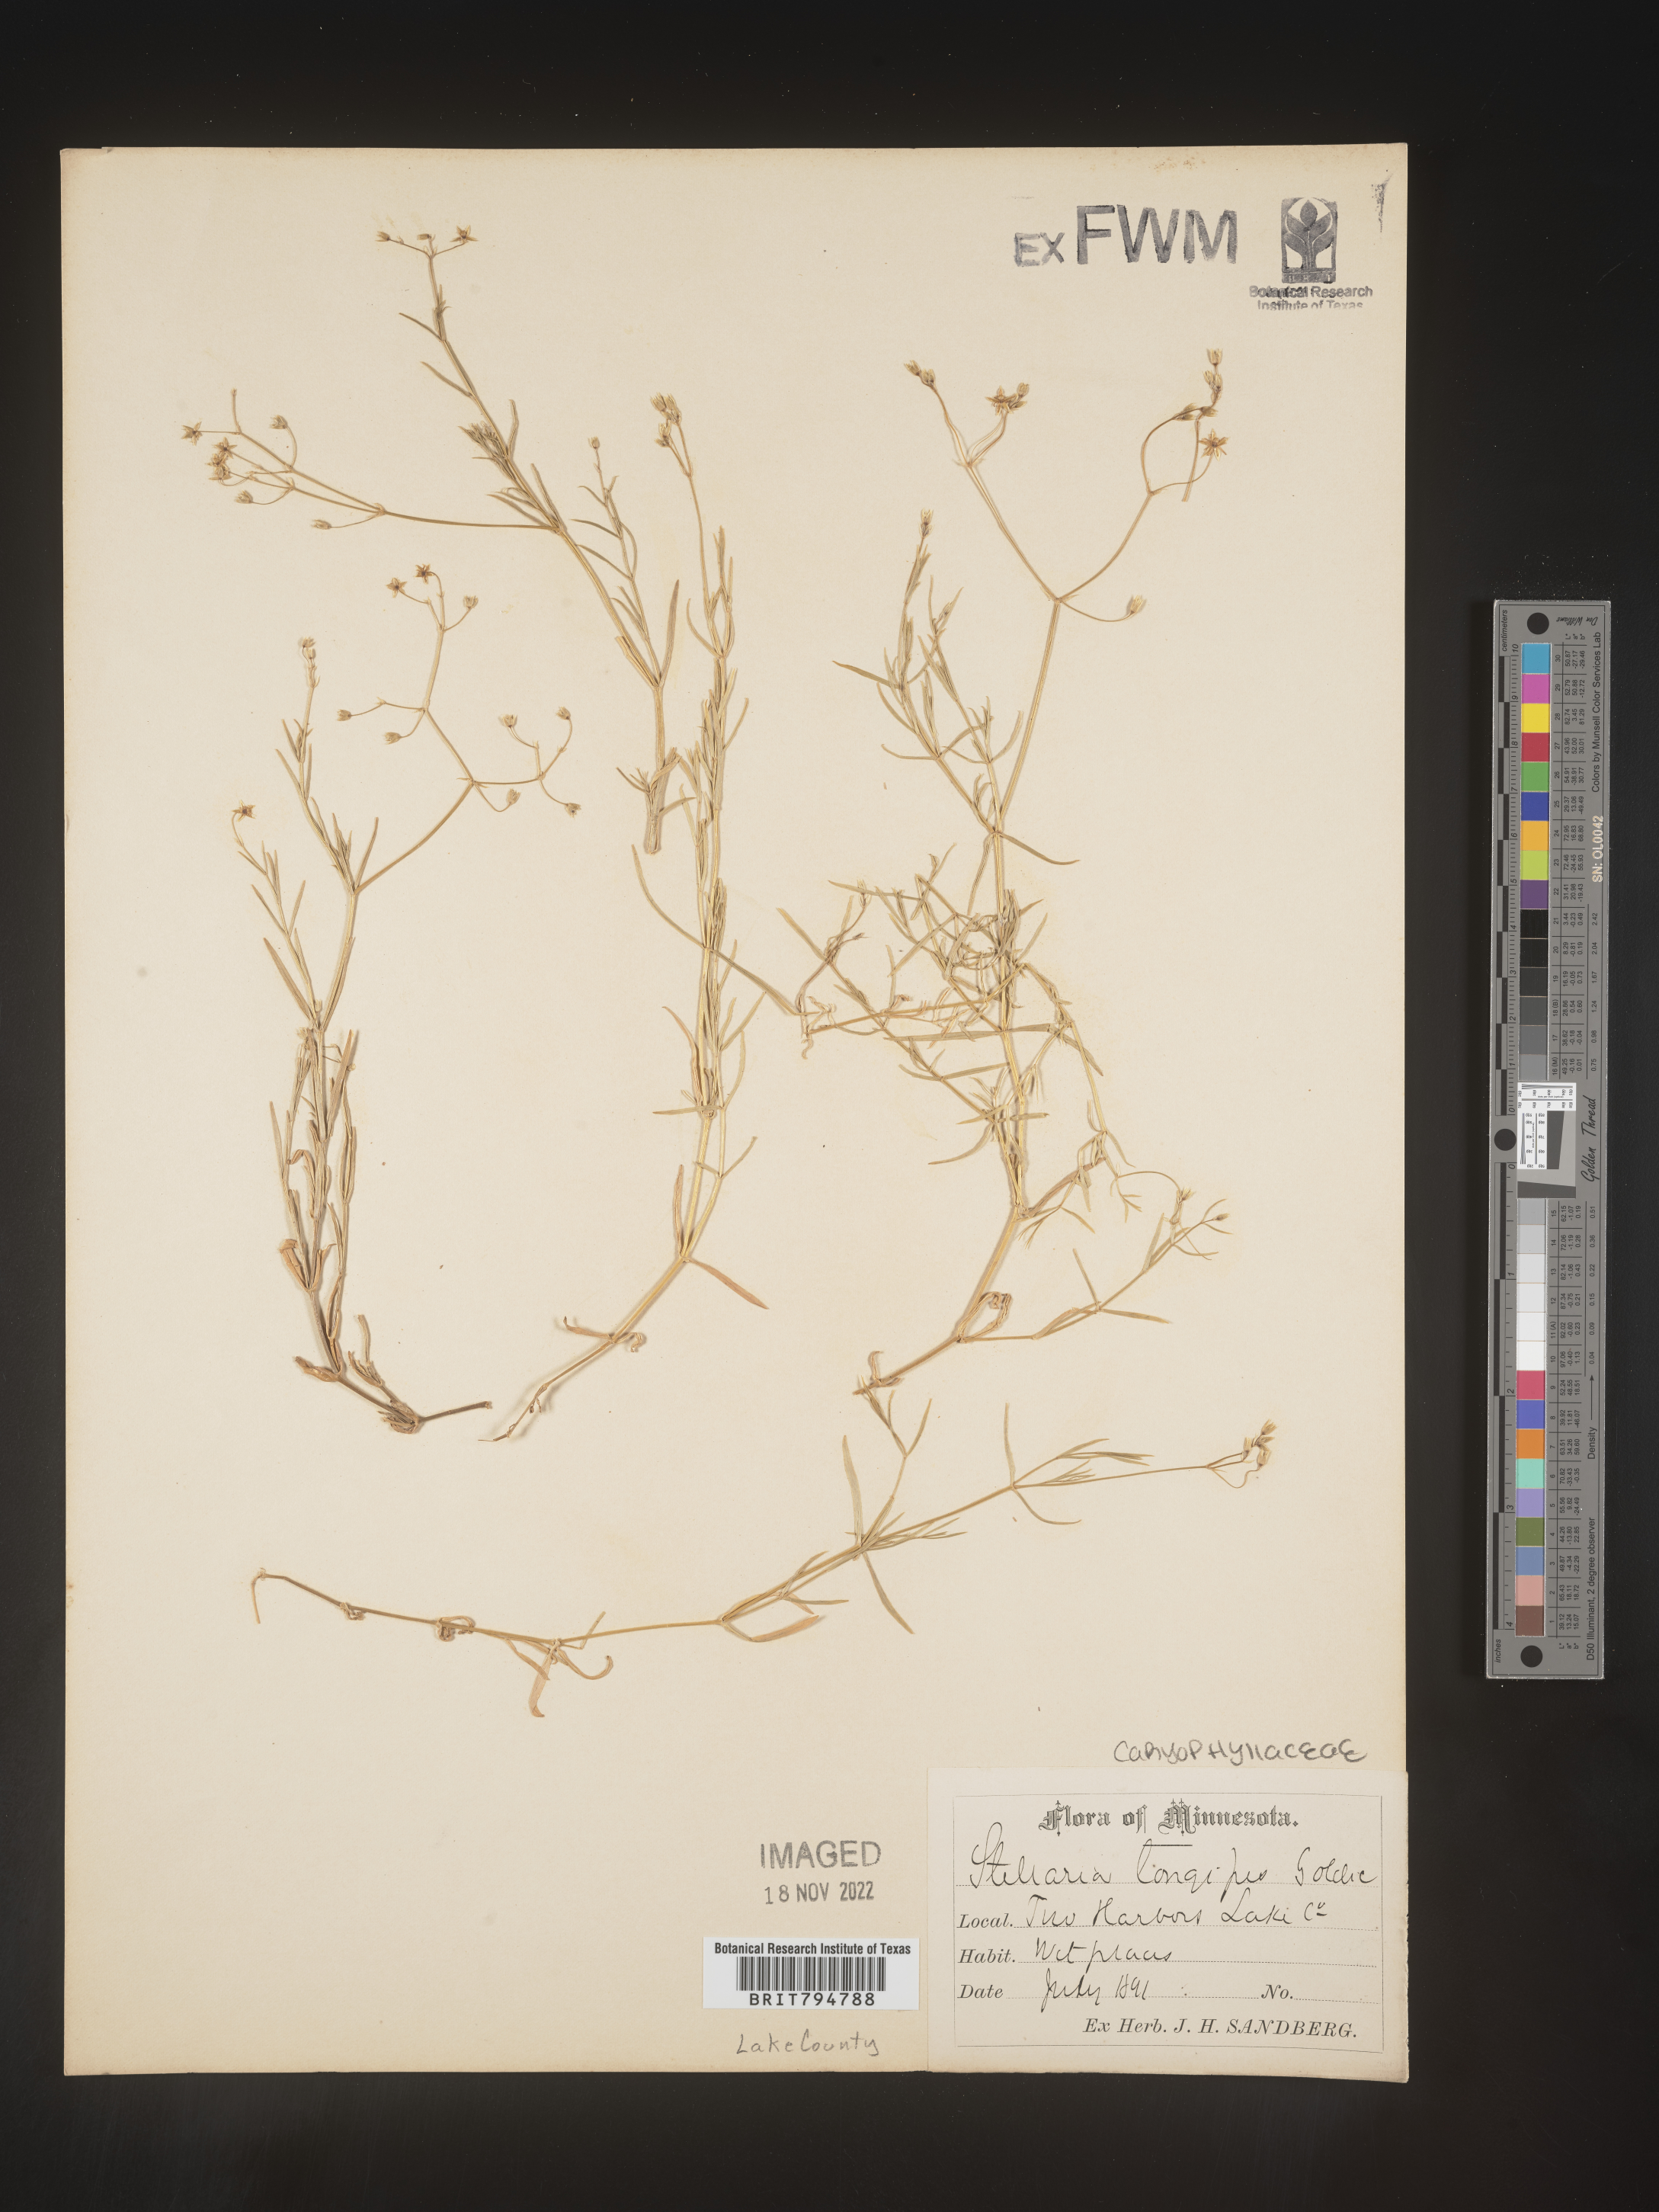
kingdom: Plantae
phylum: Tracheophyta
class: Magnoliopsida
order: Caryophyllales
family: Caryophyllaceae
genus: Stellaria
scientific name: Stellaria longipes
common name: Goldie's starwort
